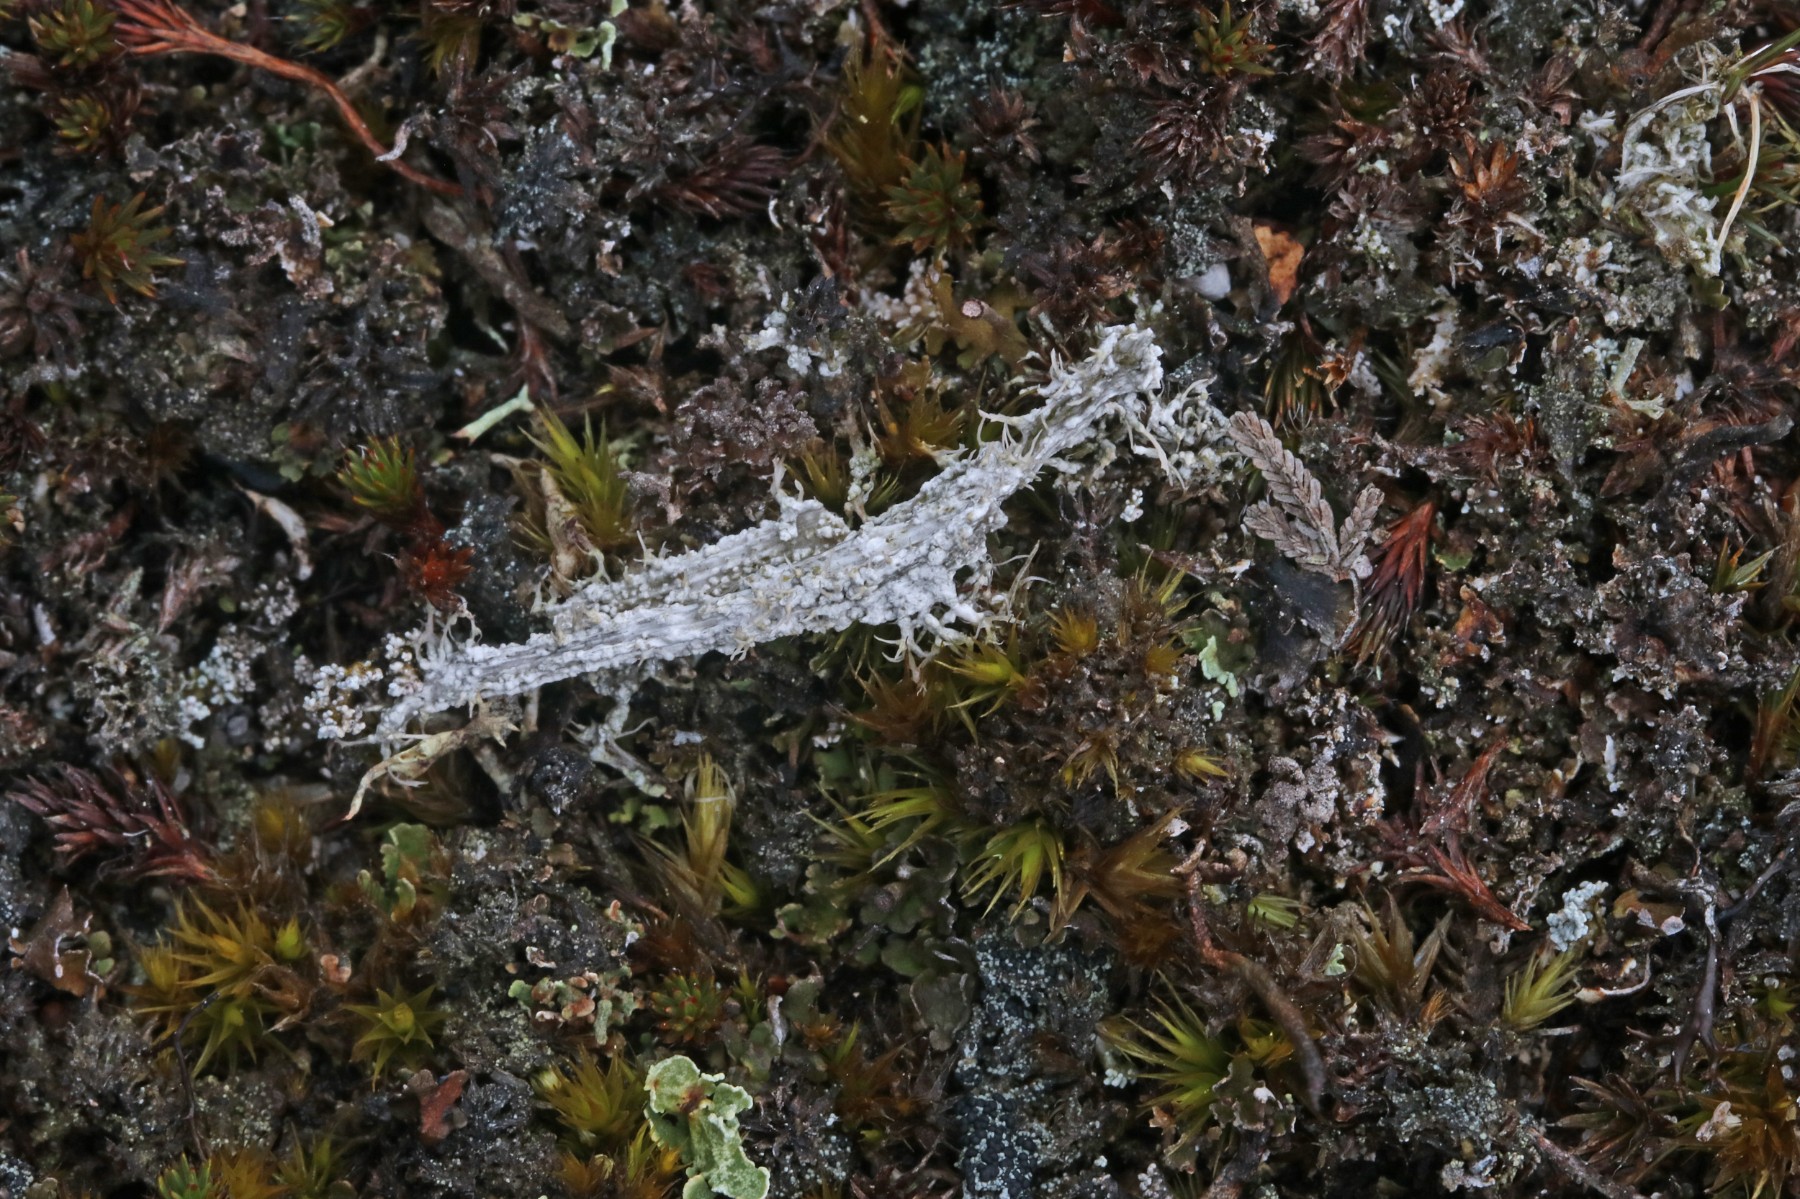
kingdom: Fungi
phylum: Ascomycota
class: Lecanoromycetes
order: Pertusariales
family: Ochrolechiaceae
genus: Ochrolechia
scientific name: Ochrolechia frigida
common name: fjeld-blegskivelav
